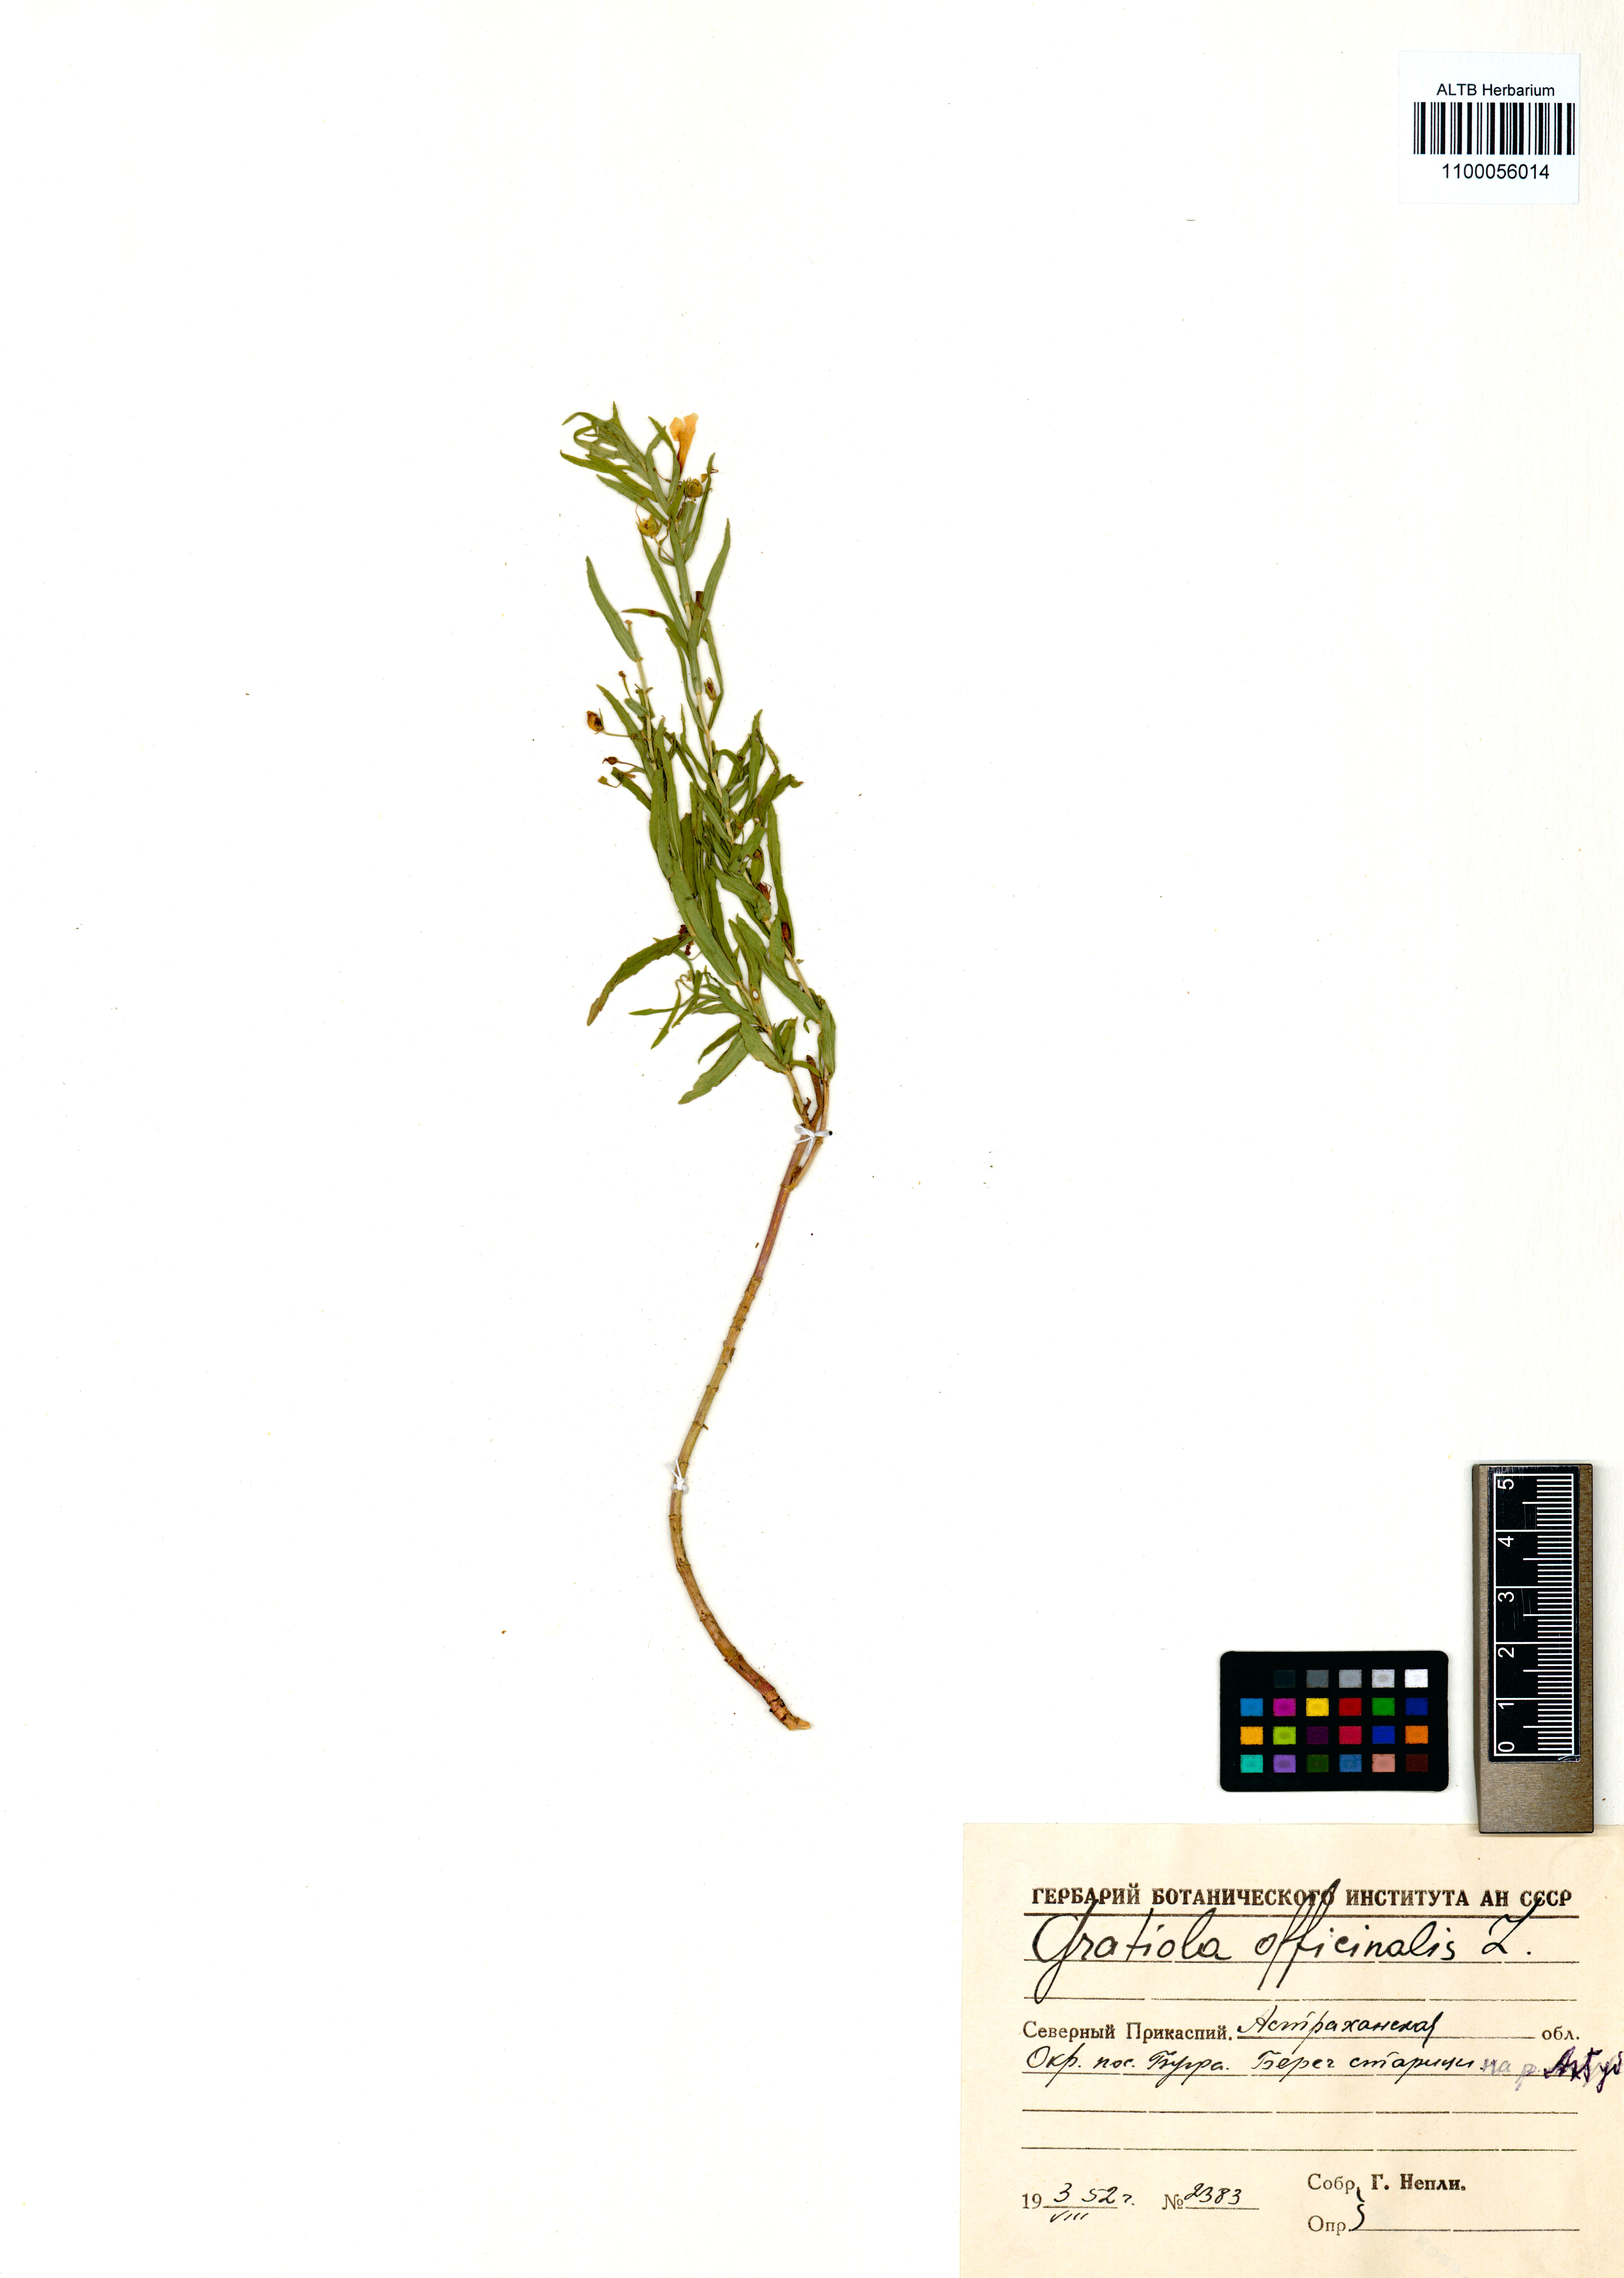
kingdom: Plantae
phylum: Tracheophyta
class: Magnoliopsida
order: Lamiales
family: Plantaginaceae
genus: Gratiola
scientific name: Gratiola officinalis
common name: Gratiola
